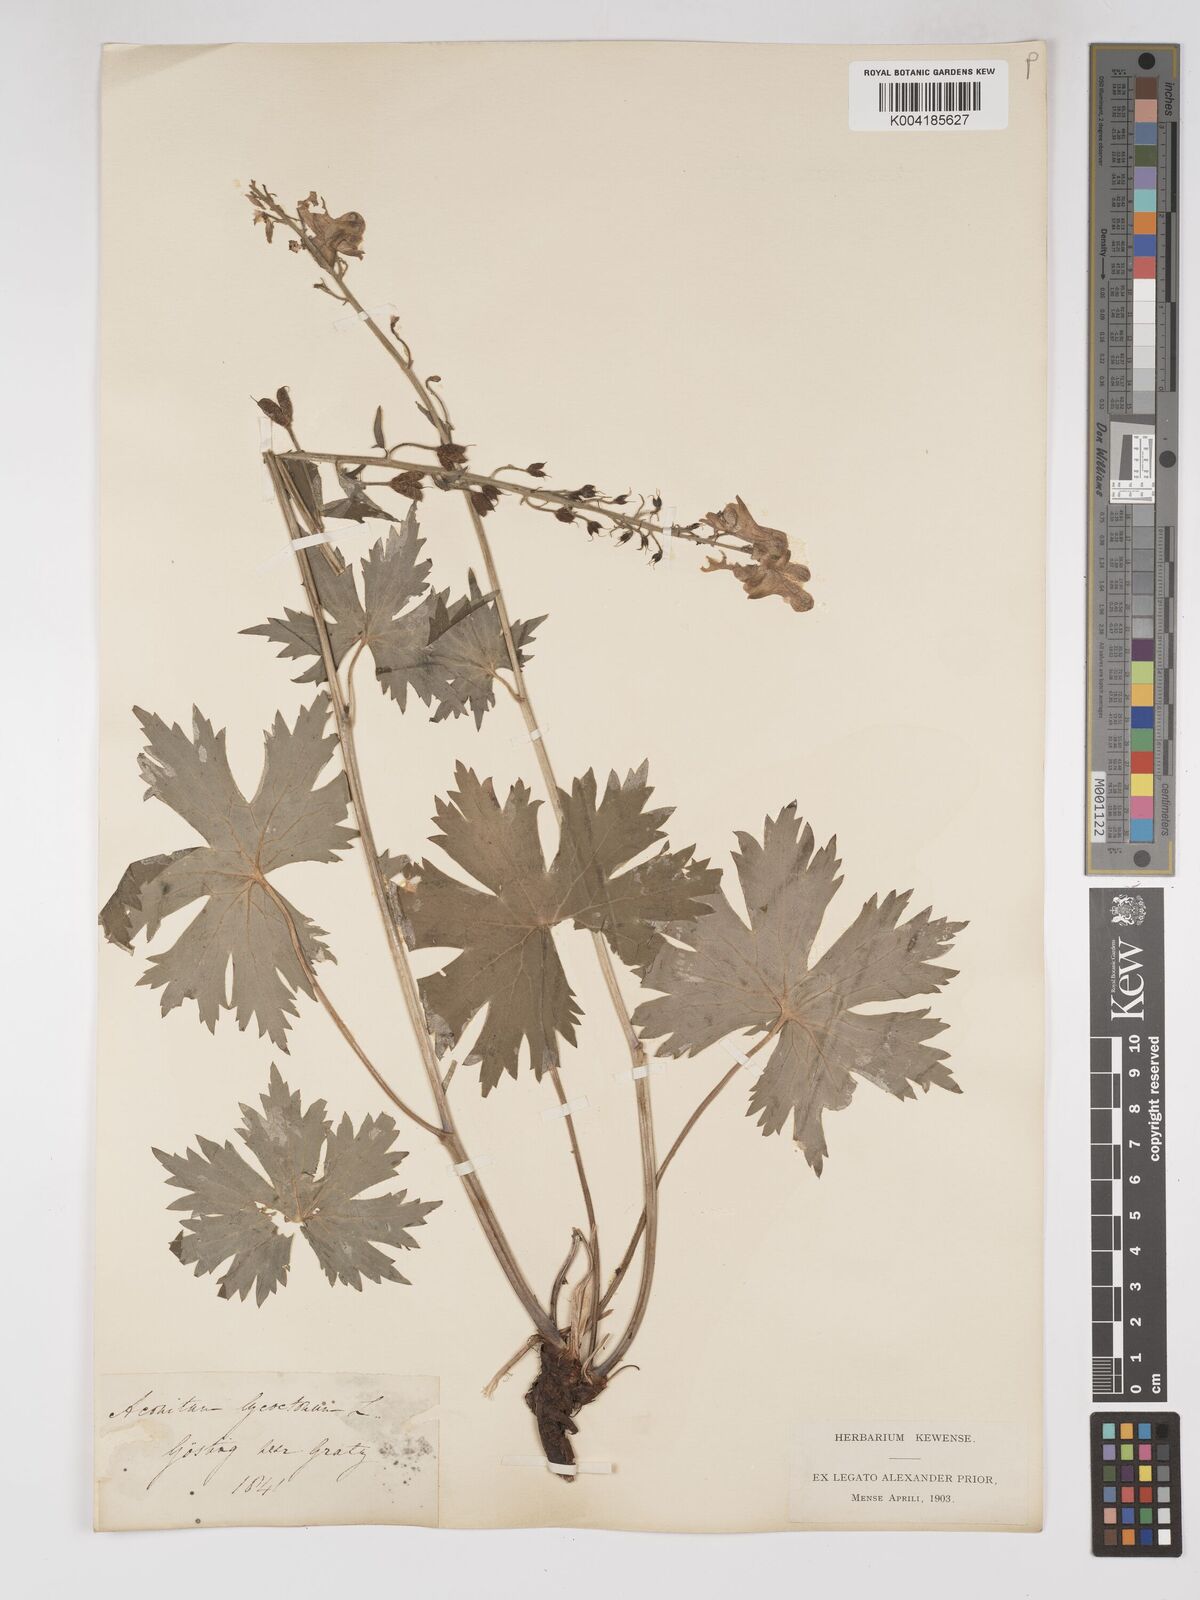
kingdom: Plantae
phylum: Tracheophyta
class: Magnoliopsida
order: Ranunculales
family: Ranunculaceae
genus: Aconitum
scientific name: Aconitum lycoctonum
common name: Wolf's-bane
